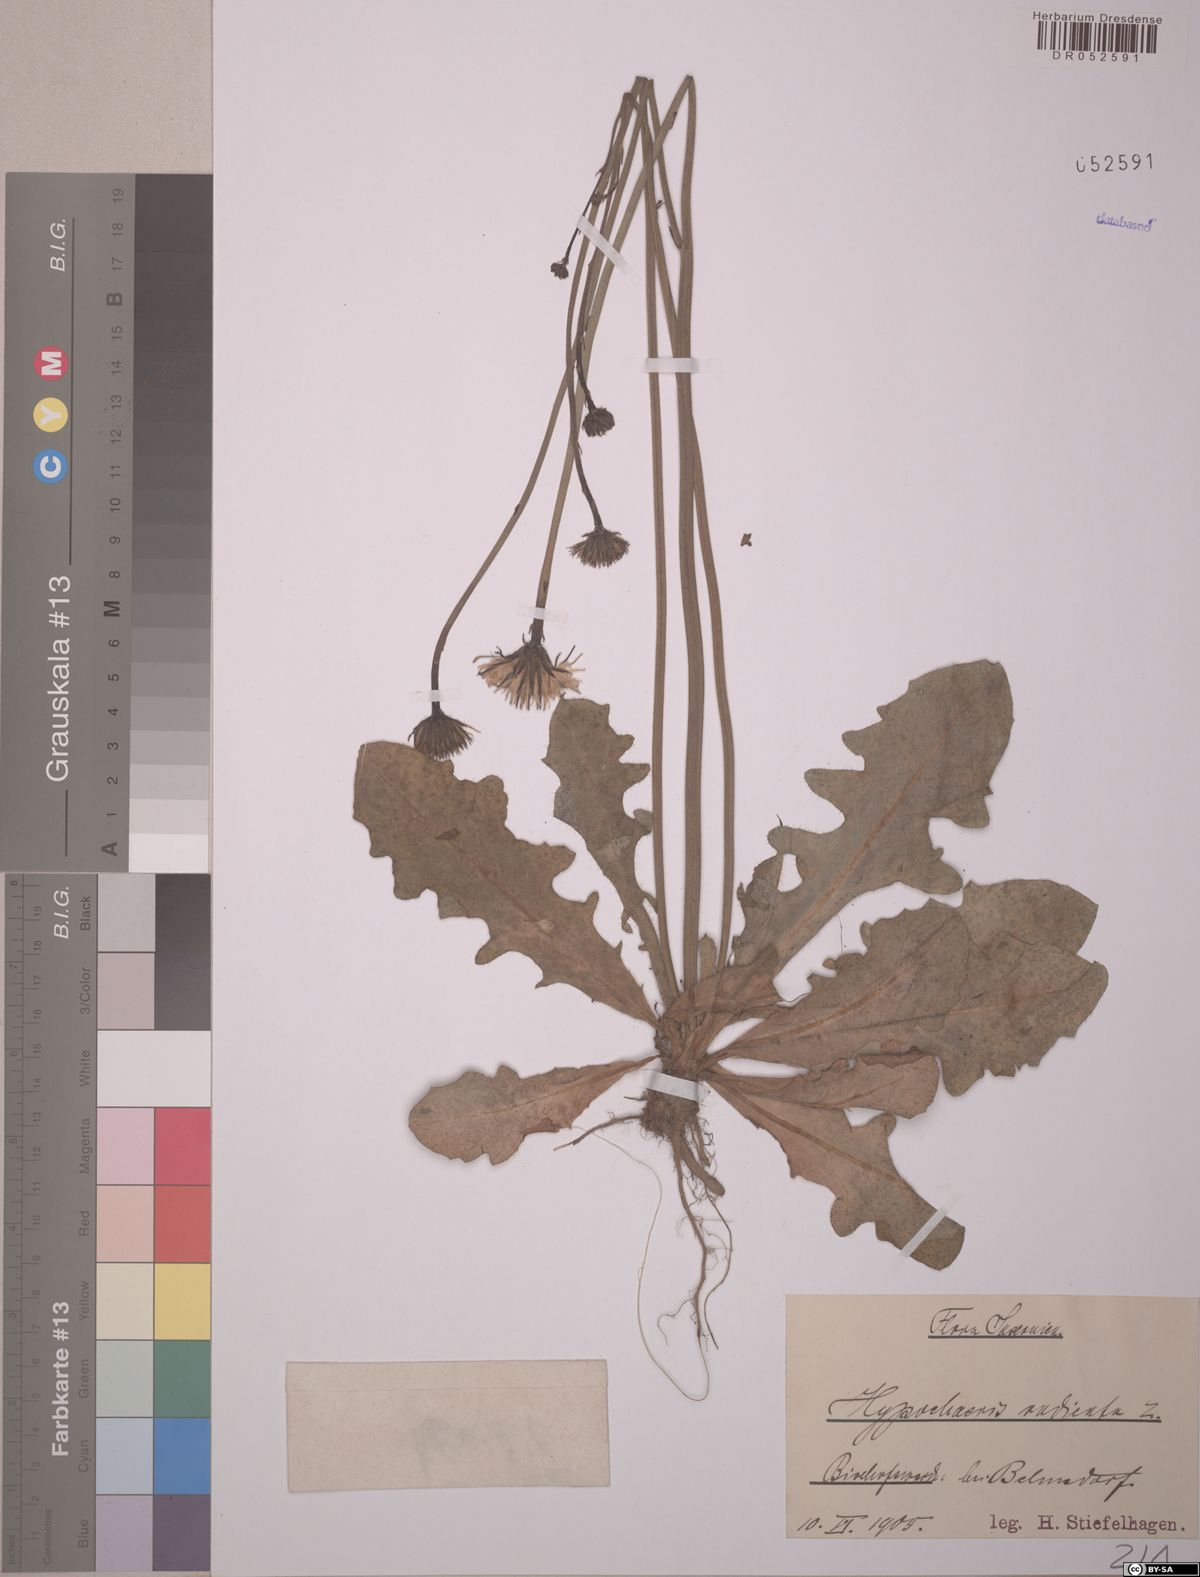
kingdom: Plantae
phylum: Tracheophyta
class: Magnoliopsida
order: Asterales
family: Asteraceae
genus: Hypochaeris
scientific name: Hypochaeris radicata
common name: Flatweed
